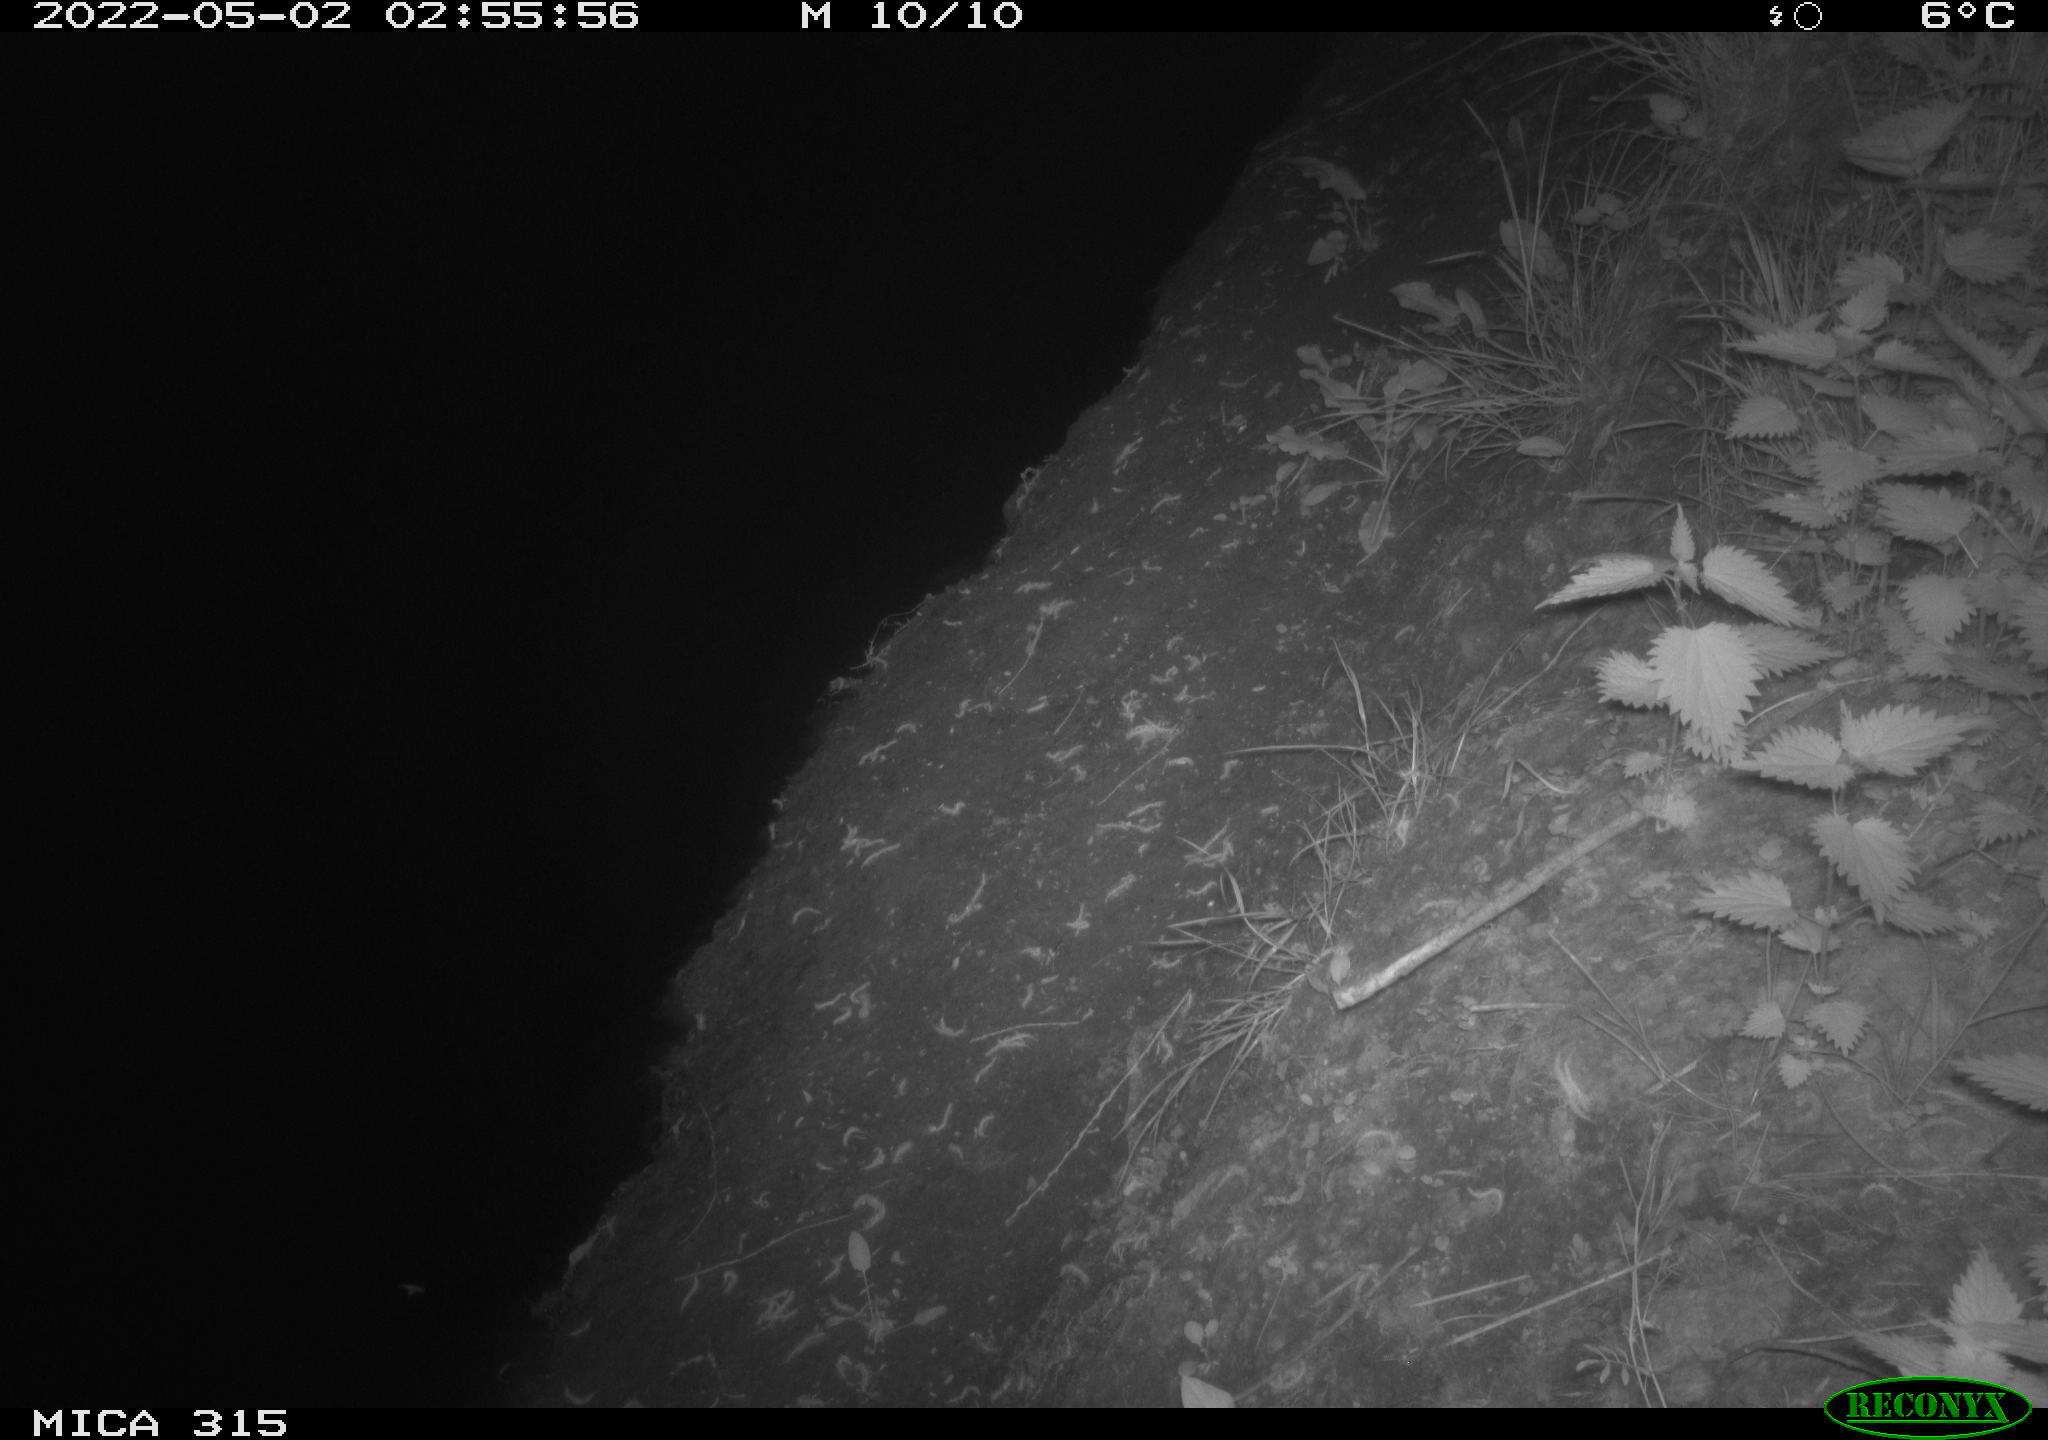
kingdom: Animalia
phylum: Chordata
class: Aves
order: Anseriformes
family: Anatidae
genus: Anas
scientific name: Anas platyrhynchos
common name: Mallard
